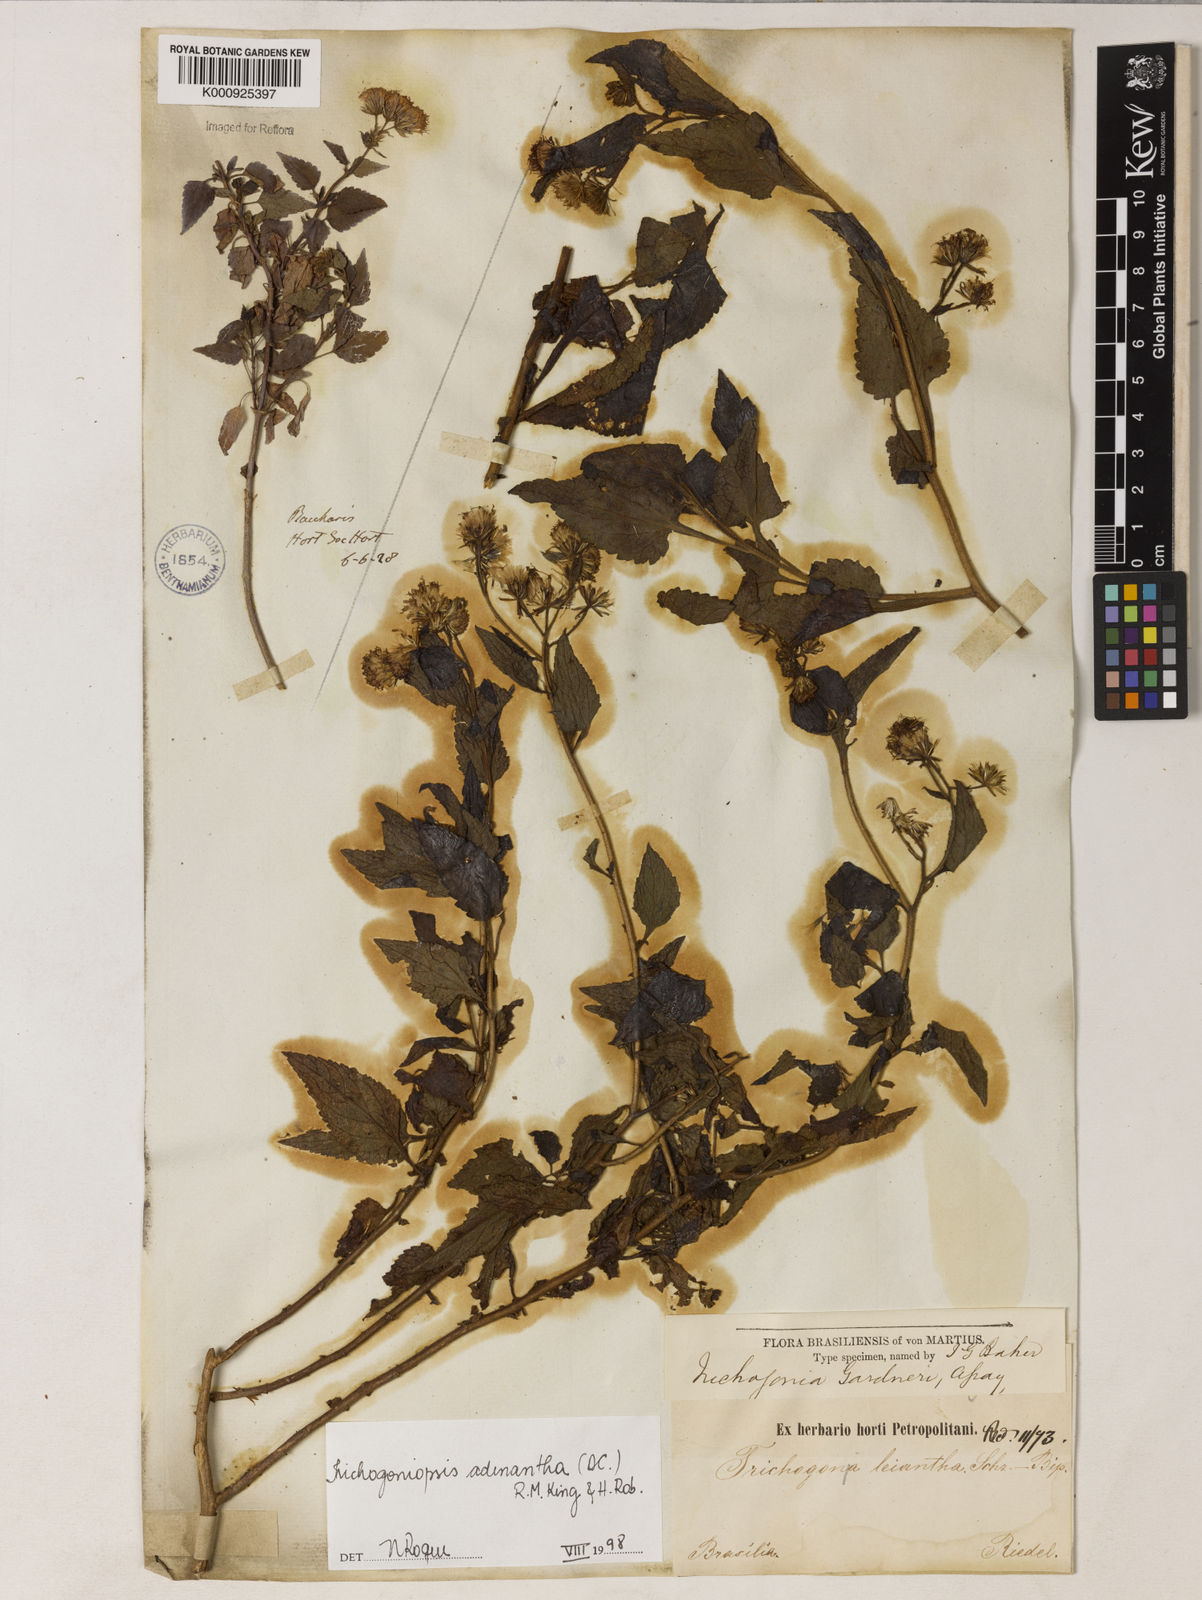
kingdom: Plantae
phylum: Tracheophyta
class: Magnoliopsida
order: Asterales
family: Asteraceae
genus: Trichogoniopsis
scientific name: Trichogoniopsis adenantha
